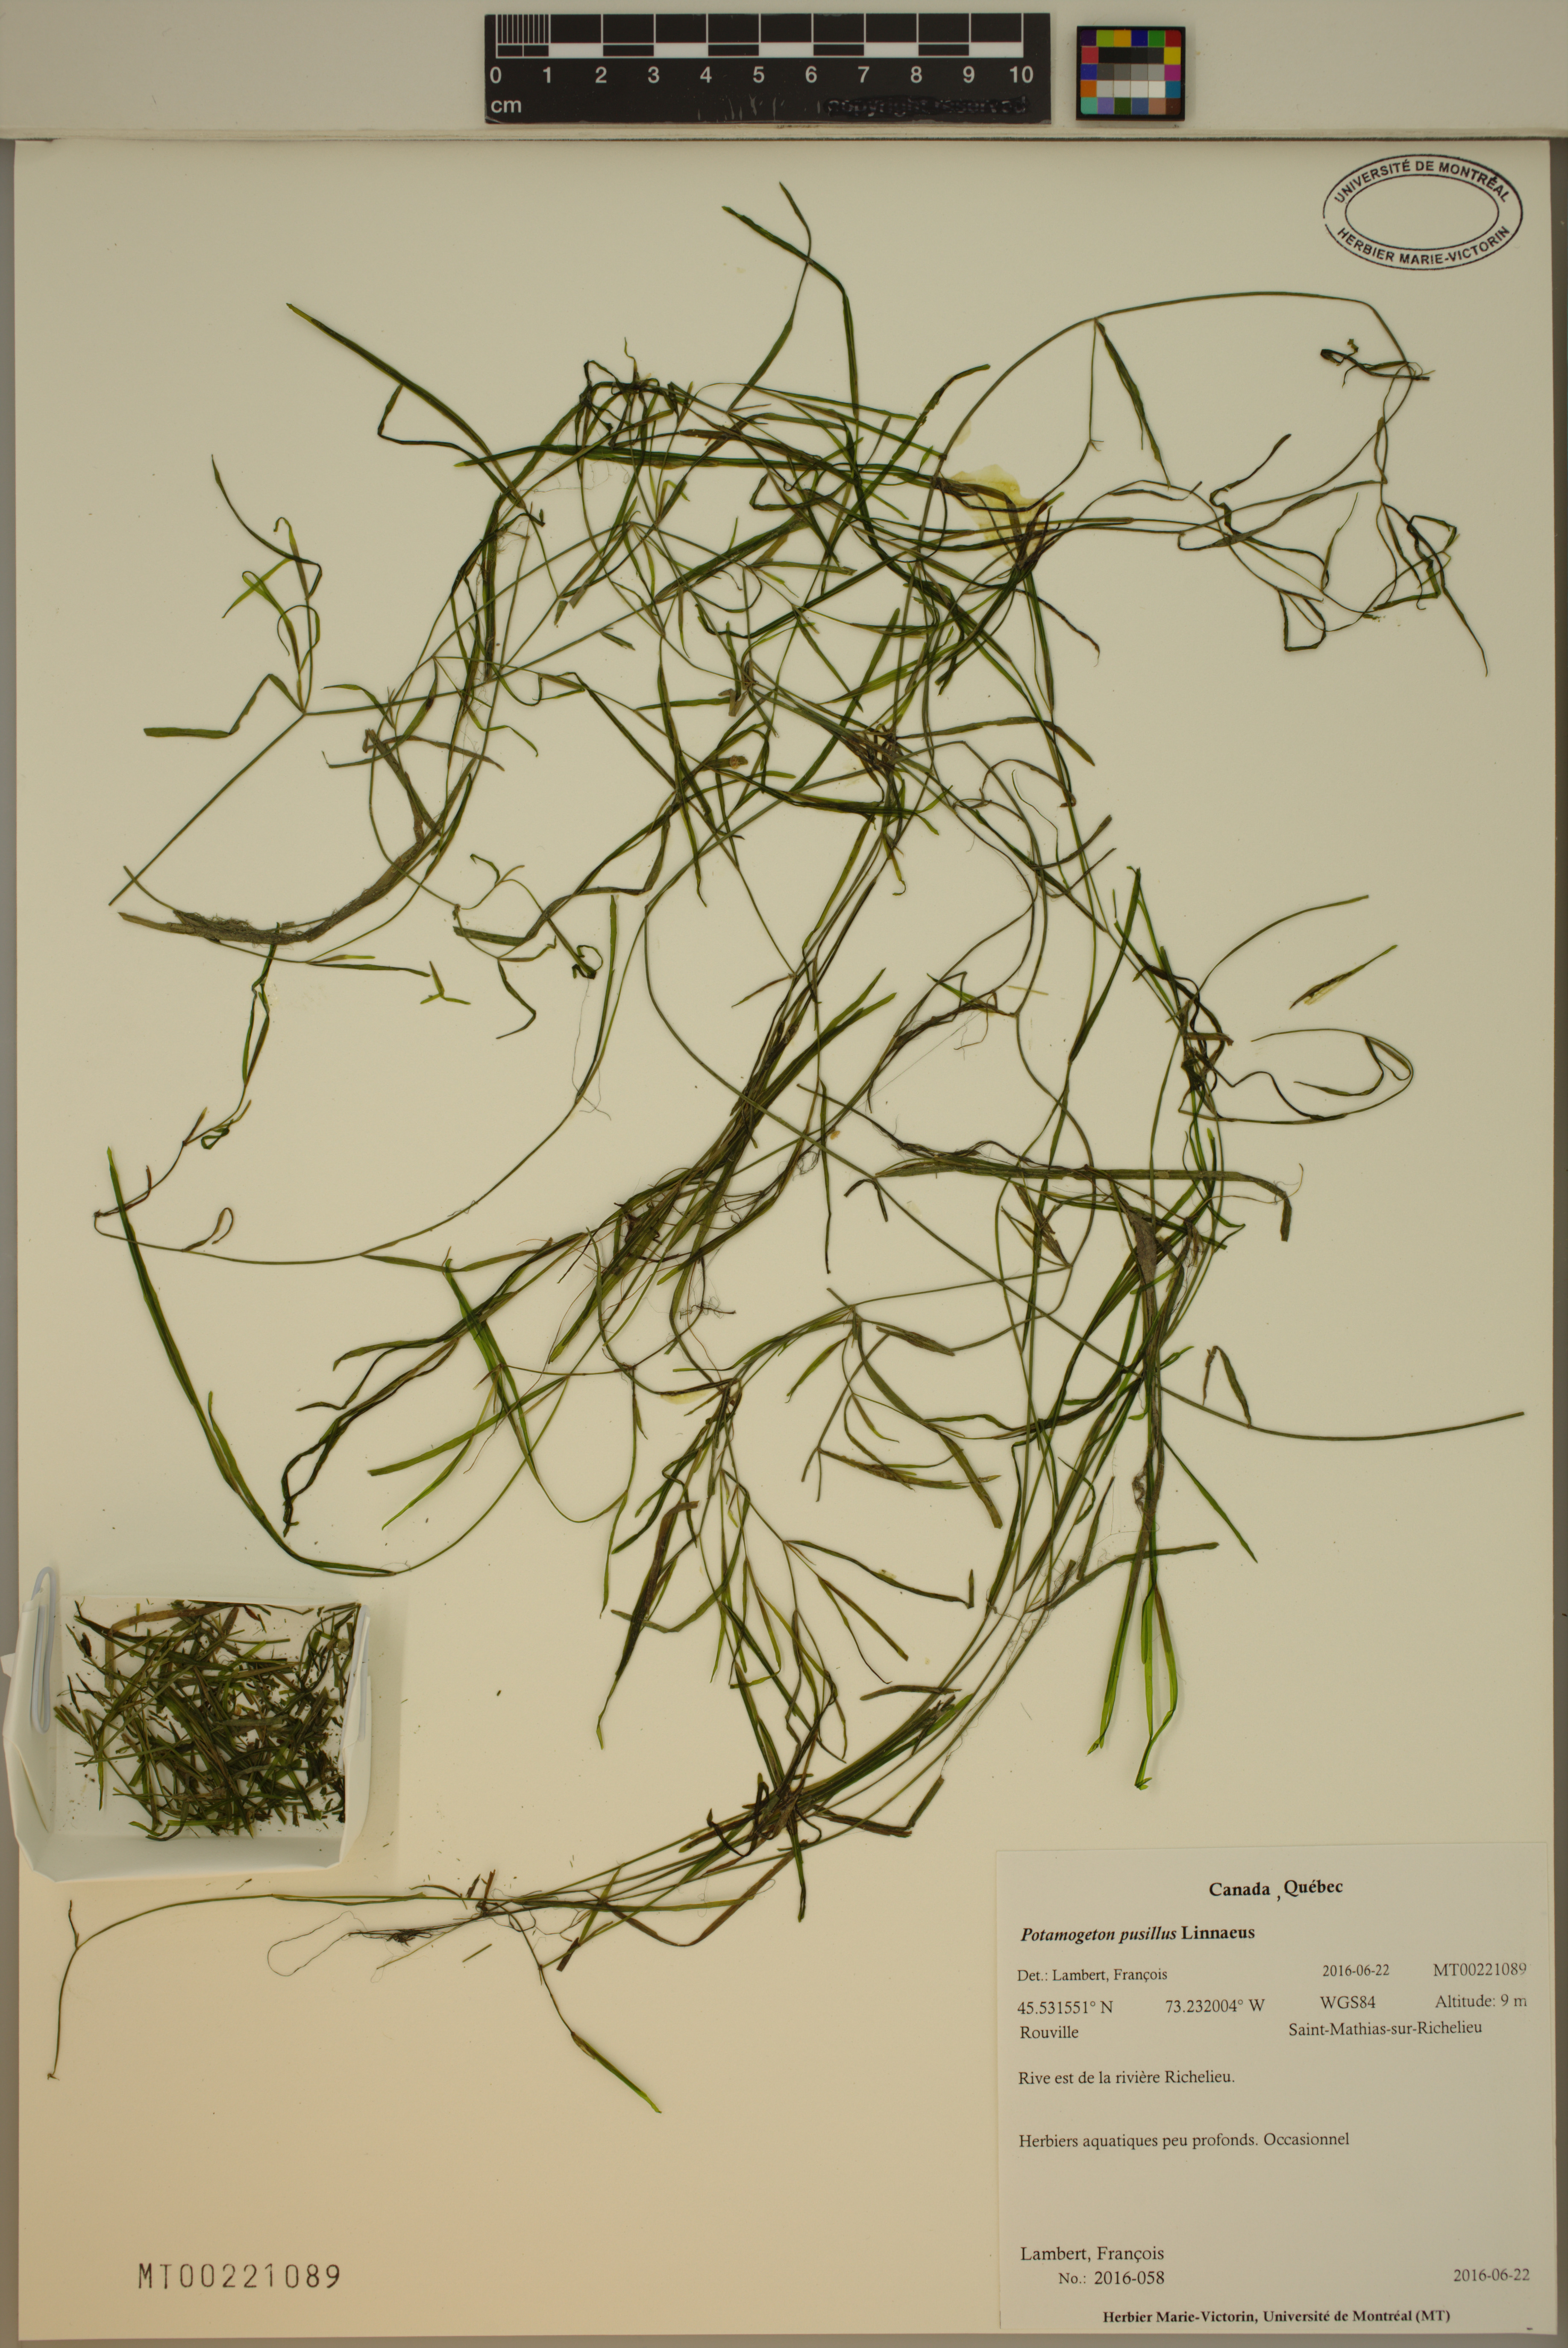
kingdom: Plantae
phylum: Tracheophyta
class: Liliopsida
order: Alismatales
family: Potamogetonaceae
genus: Potamogeton
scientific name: Potamogeton pusillus
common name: Lesser pondweed
